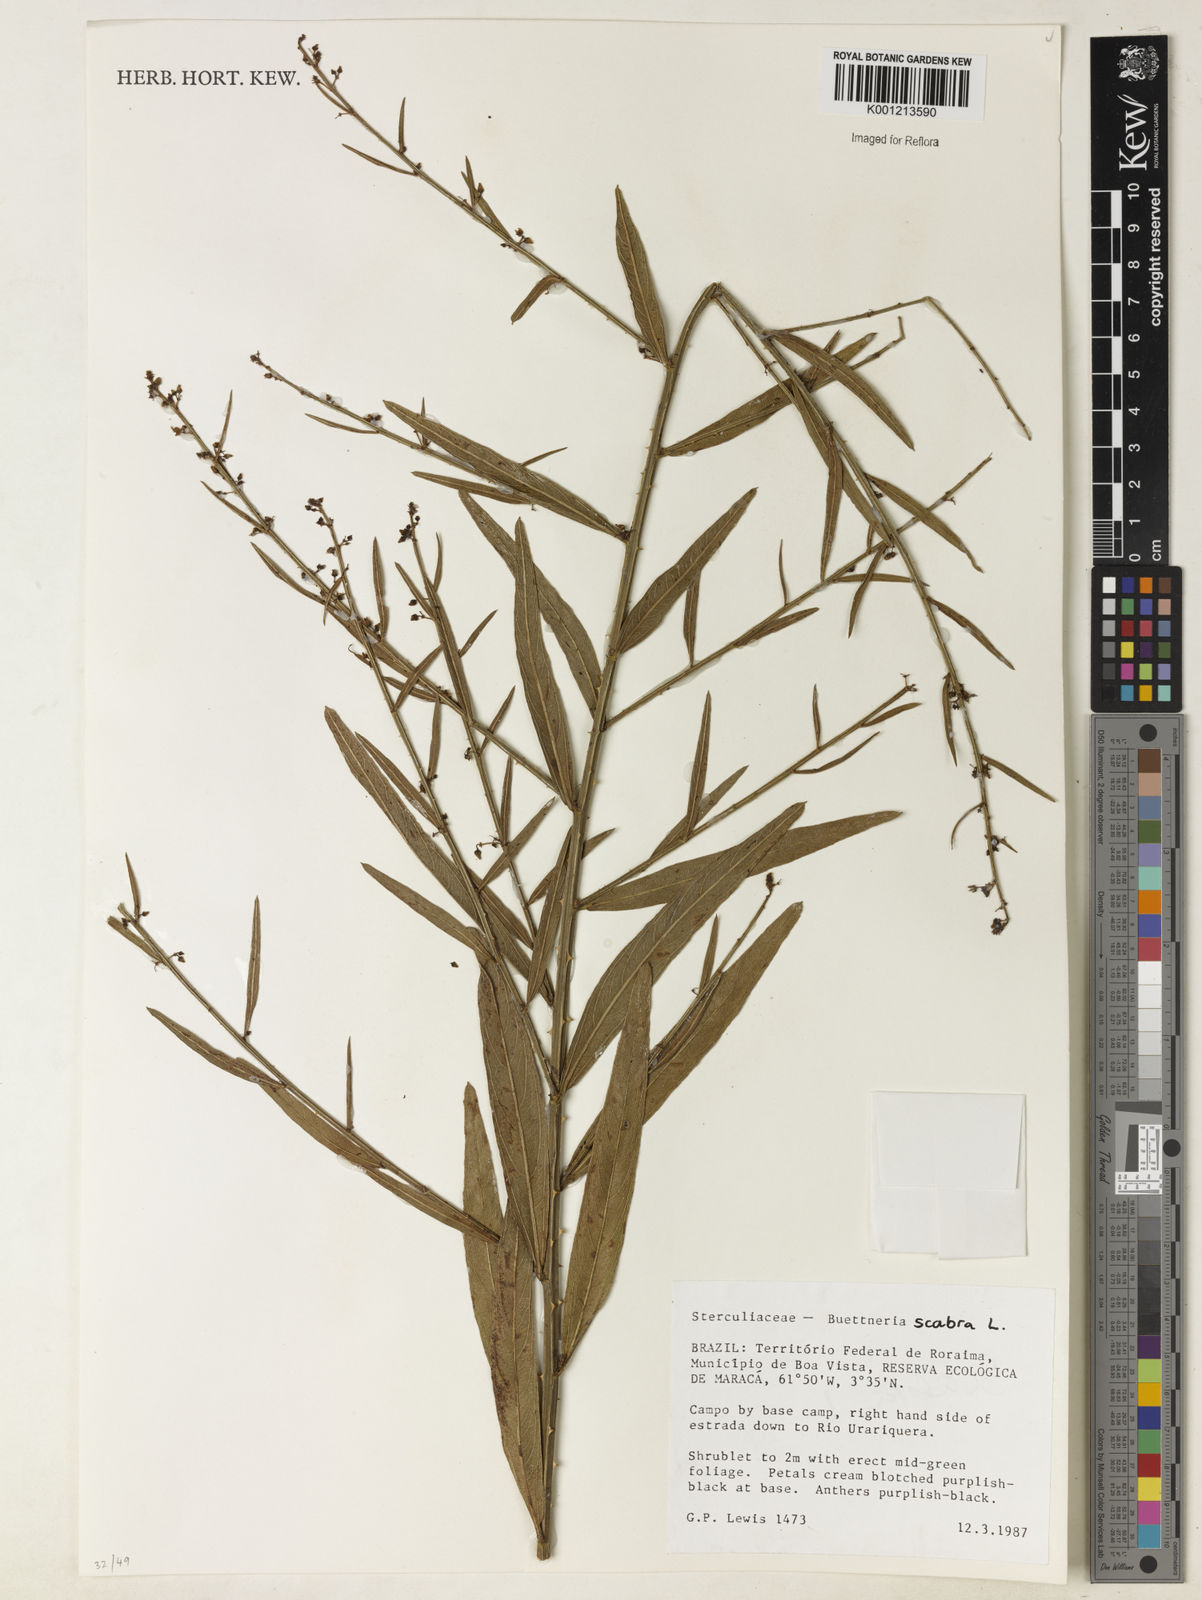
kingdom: Plantae
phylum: Tracheophyta
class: Magnoliopsida
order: Malvales
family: Malvaceae
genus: Byttneria
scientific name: Byttneria
